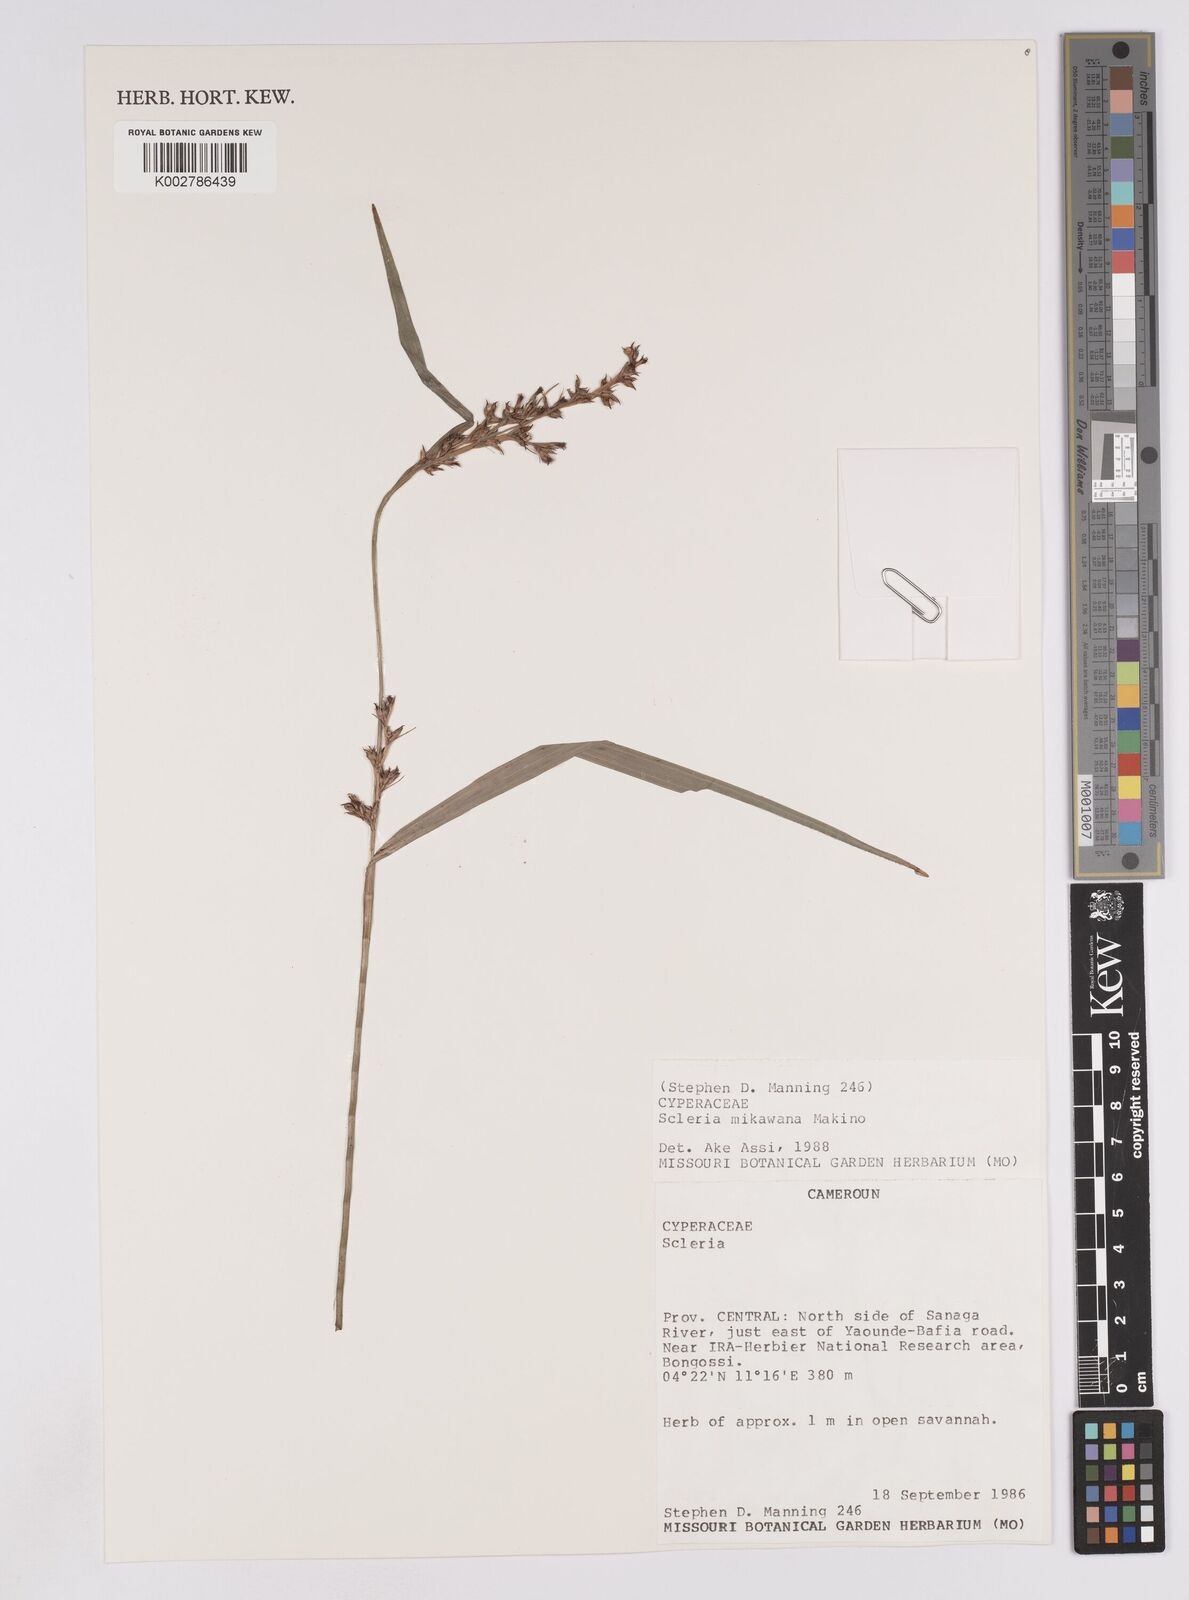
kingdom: Plantae
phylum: Tracheophyta
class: Liliopsida
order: Poales
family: Cyperaceae
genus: Scleria
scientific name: Scleria mikawana
